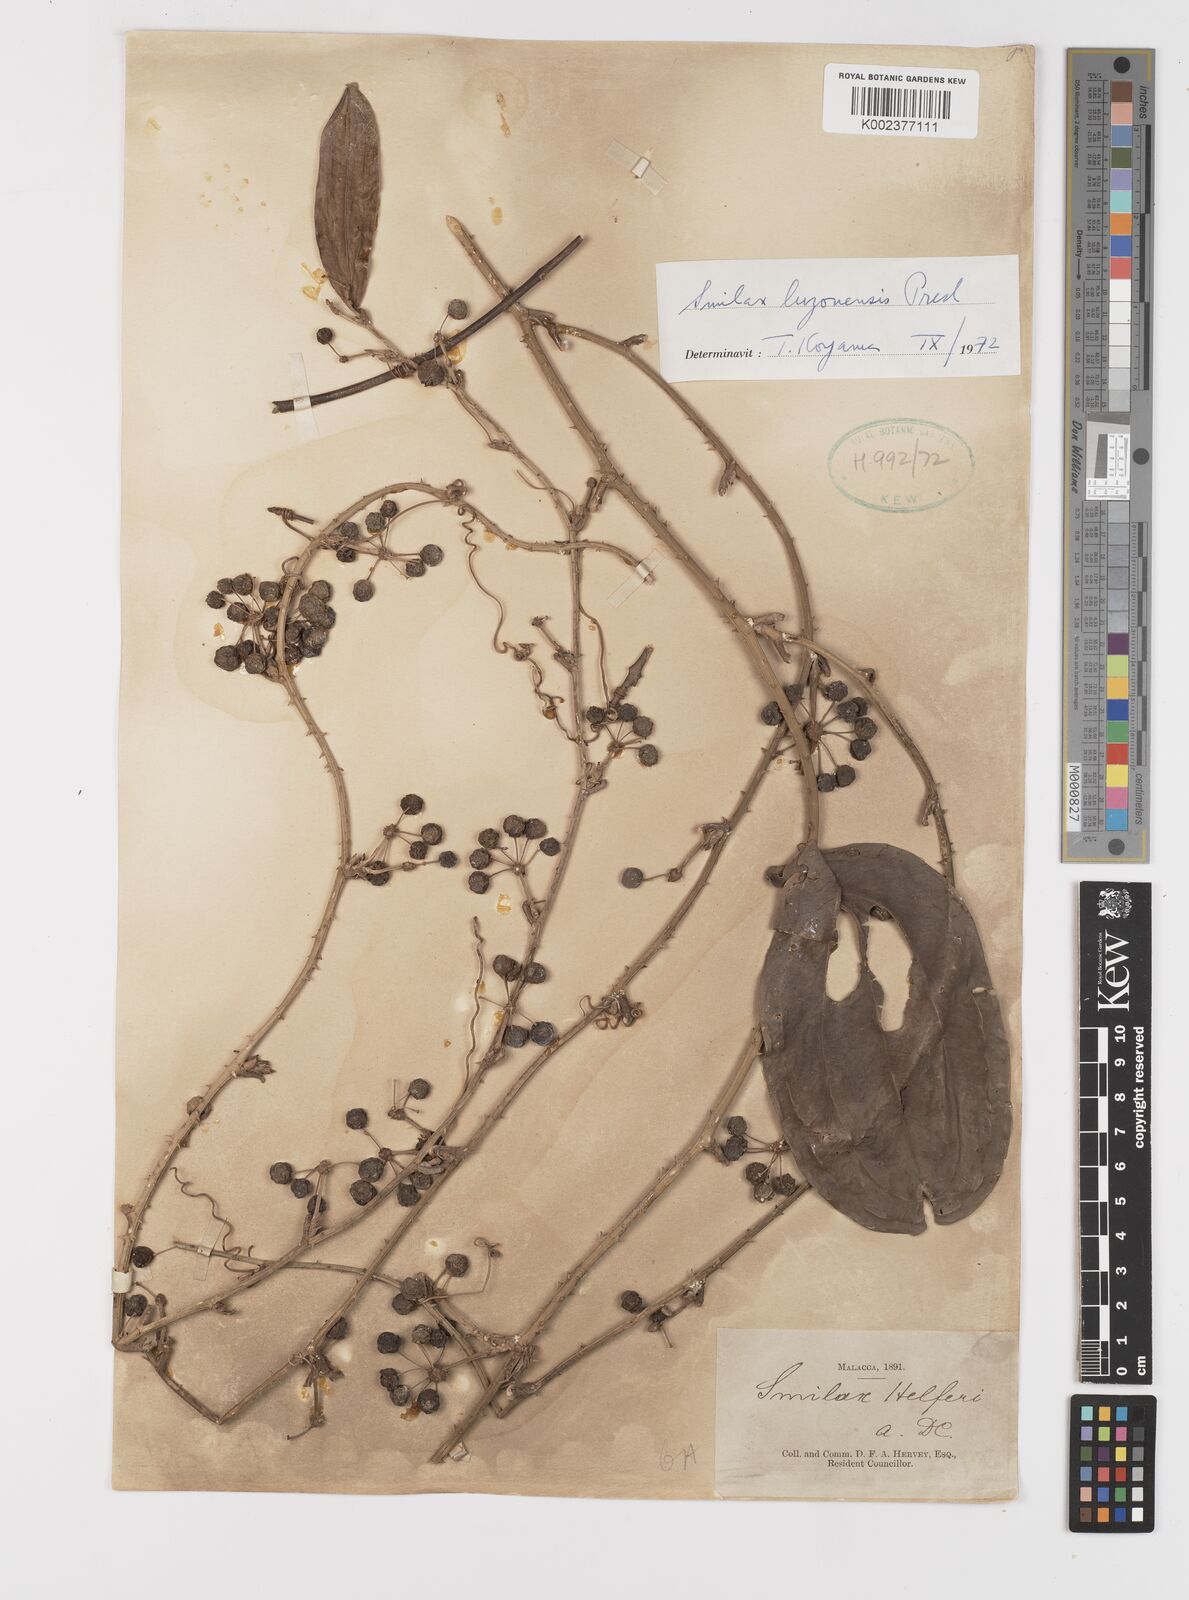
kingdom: Plantae
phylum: Tracheophyta
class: Liliopsida
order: Liliales
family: Smilacaceae
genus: Smilax
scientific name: Smilax luzonensis
